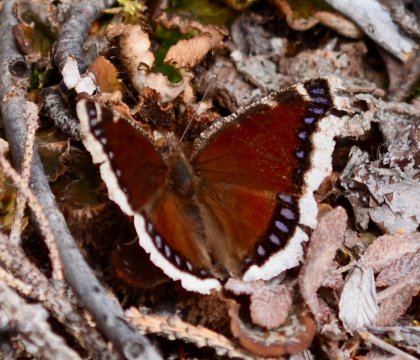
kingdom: Animalia
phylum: Arthropoda
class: Insecta
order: Lepidoptera
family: Nymphalidae
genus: Nymphalis
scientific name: Nymphalis antiopa
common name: Mourning Cloak
